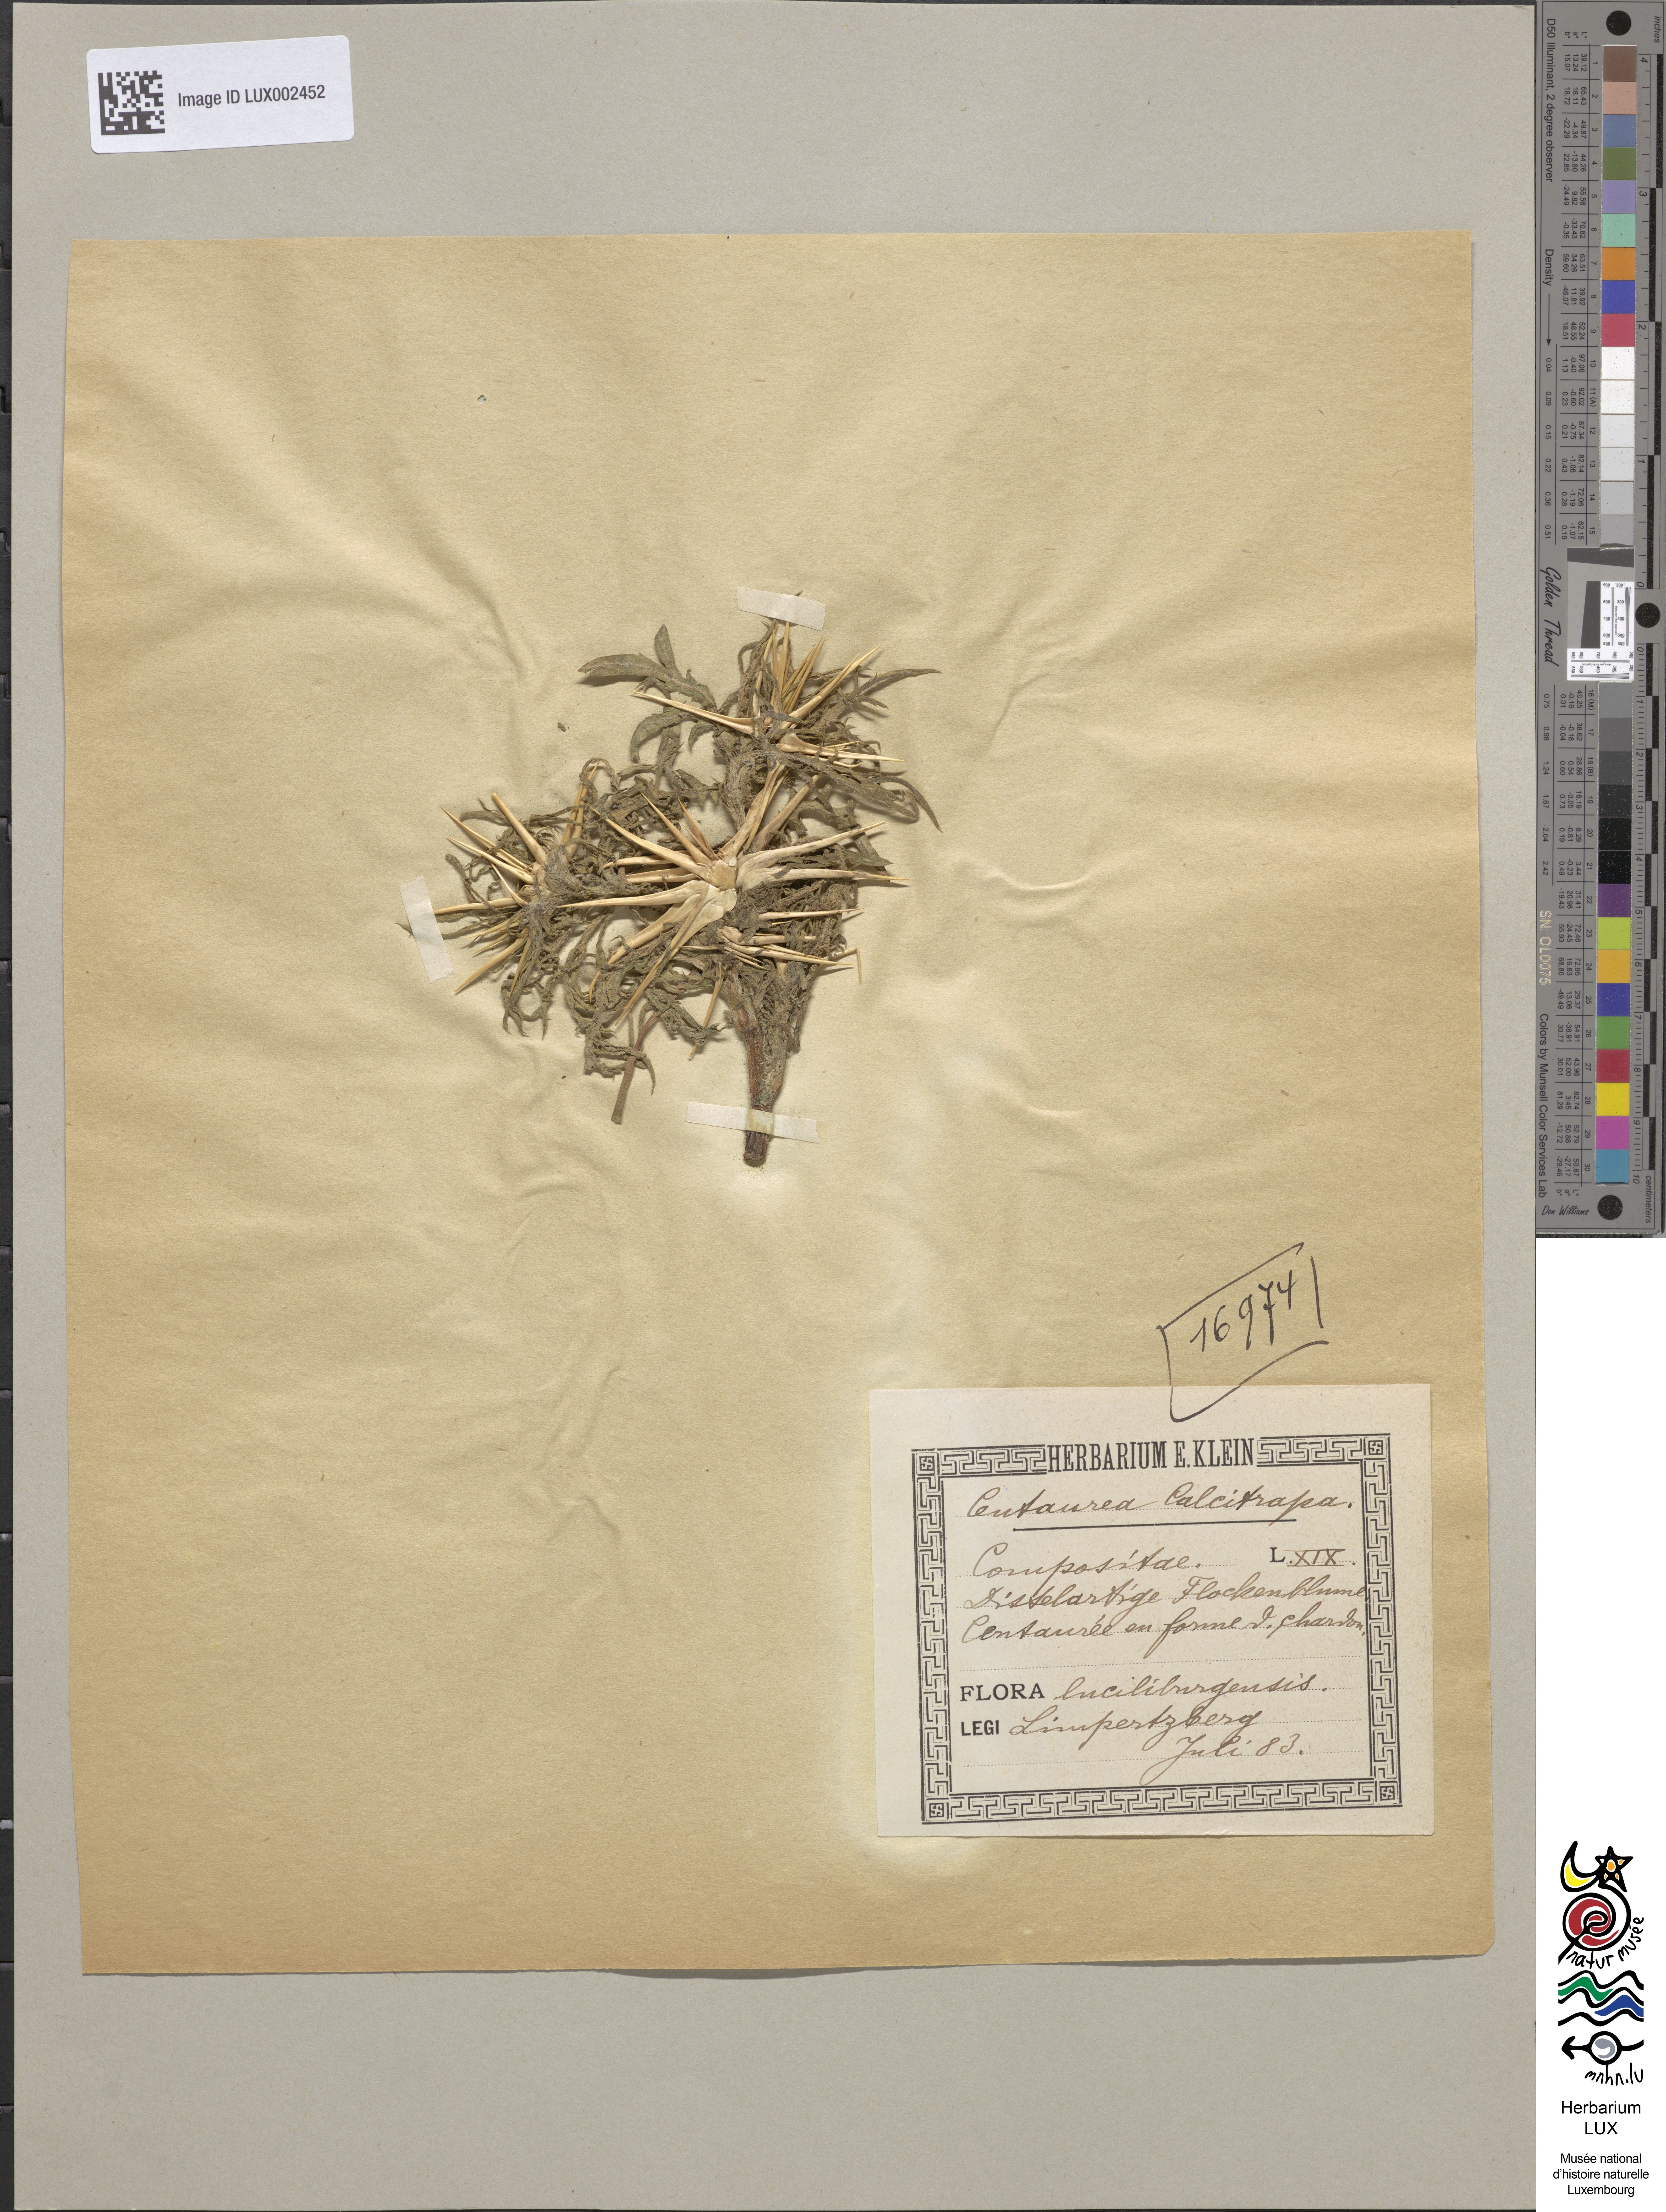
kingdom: Plantae
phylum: Tracheophyta
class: Magnoliopsida
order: Asterales
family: Asteraceae
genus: Centaurea
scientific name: Centaurea calcitrapa
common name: Red star-thistle
